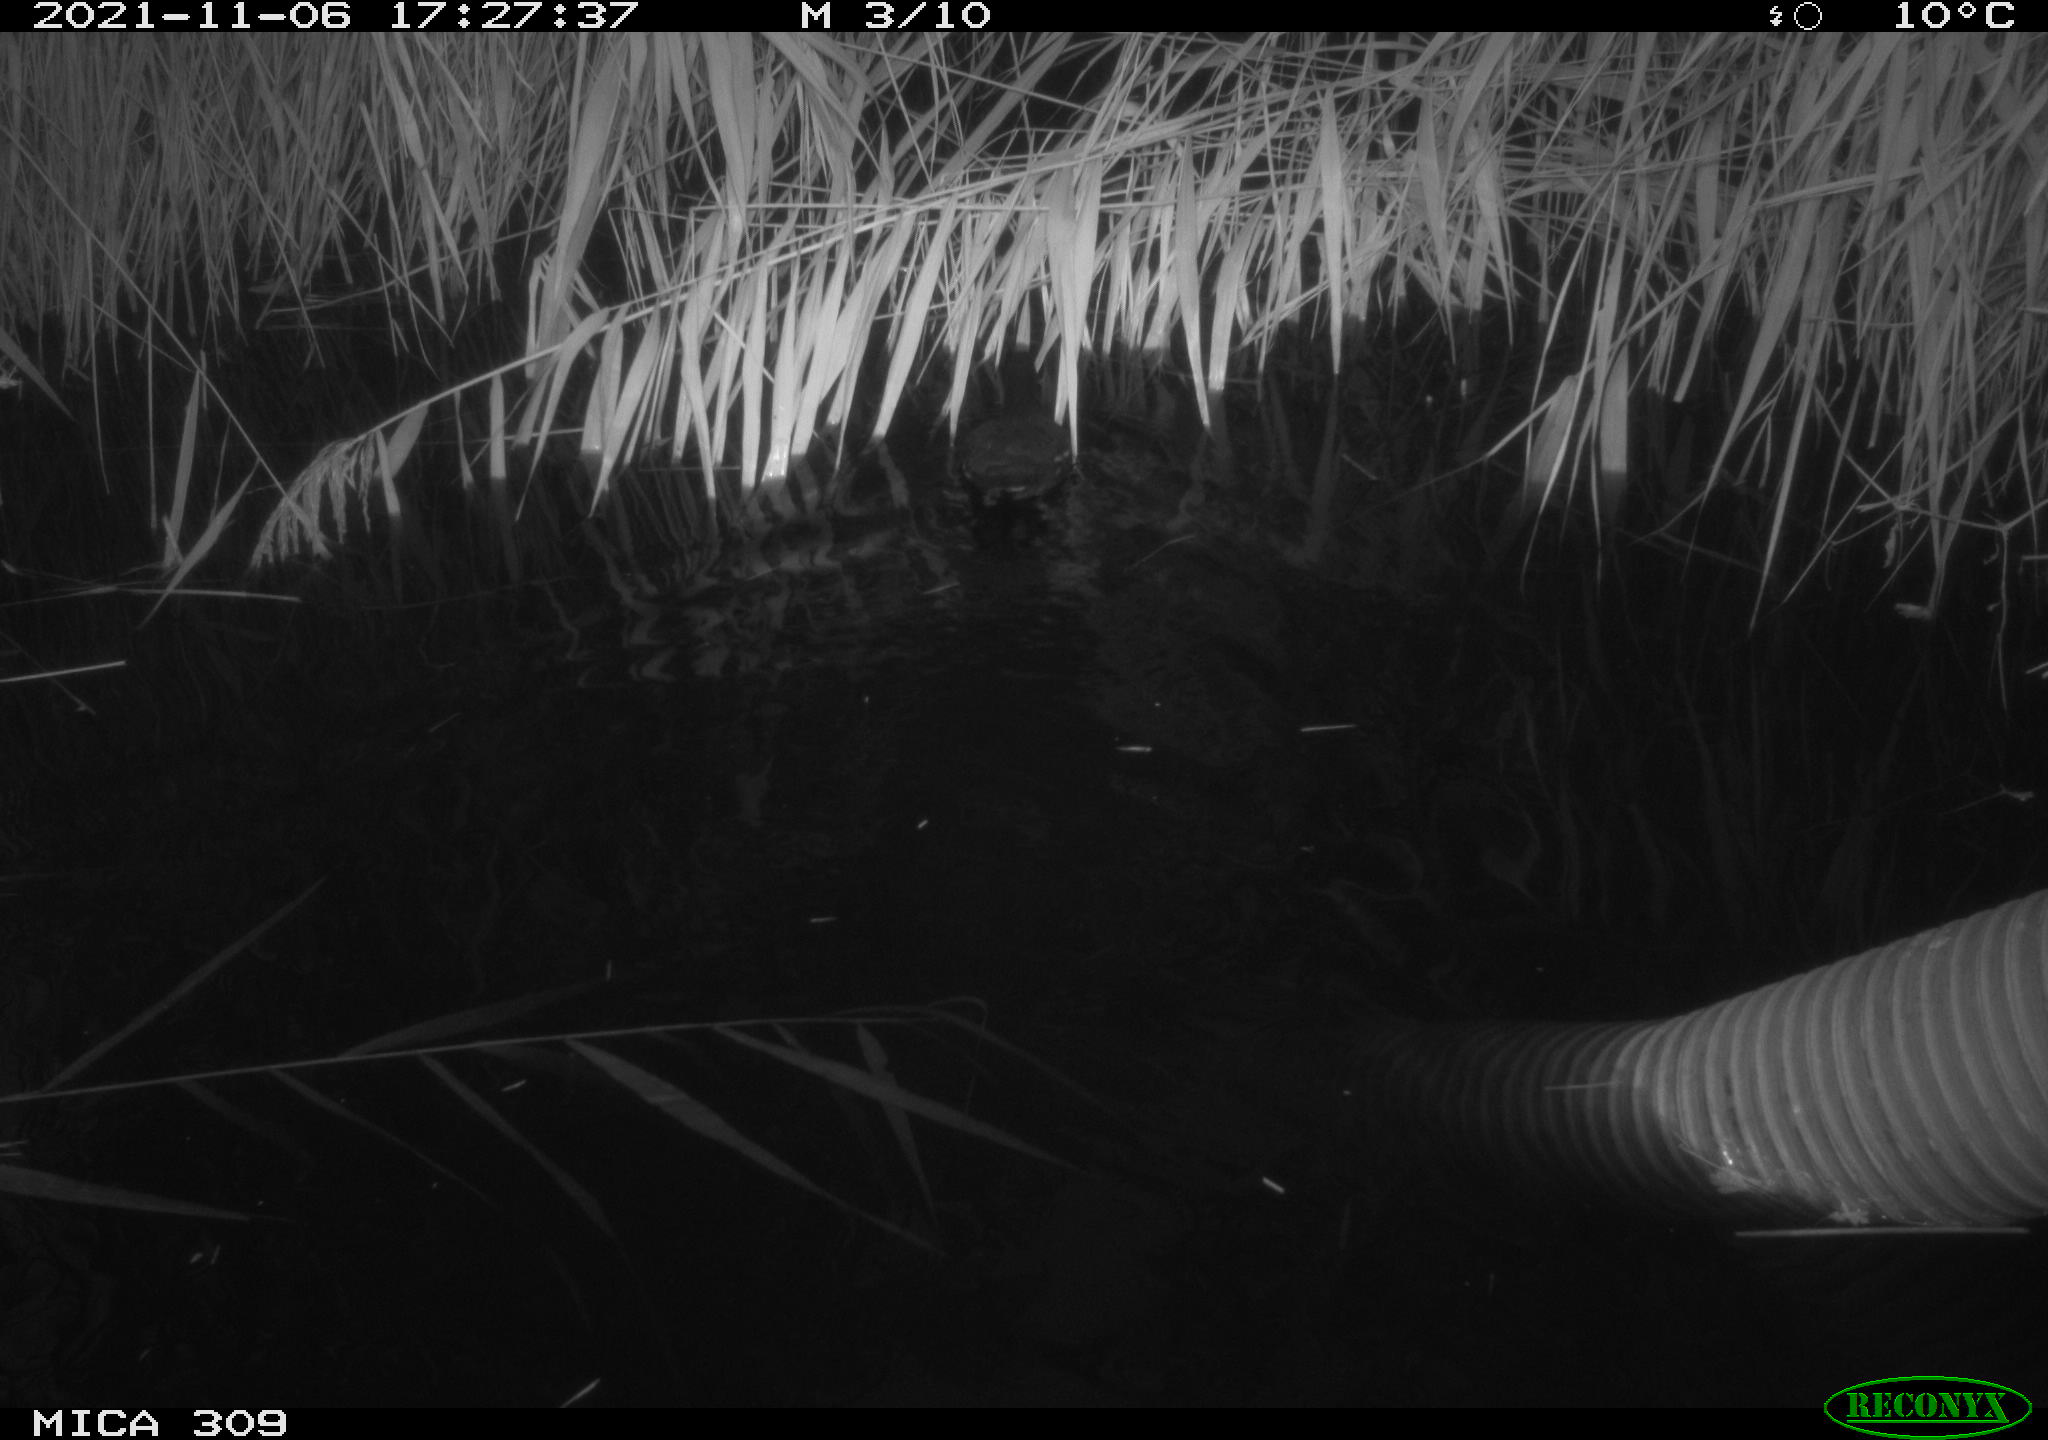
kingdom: Animalia
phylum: Chordata
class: Aves
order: Gruiformes
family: Rallidae
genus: Gallinula
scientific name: Gallinula chloropus
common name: Common moorhen
